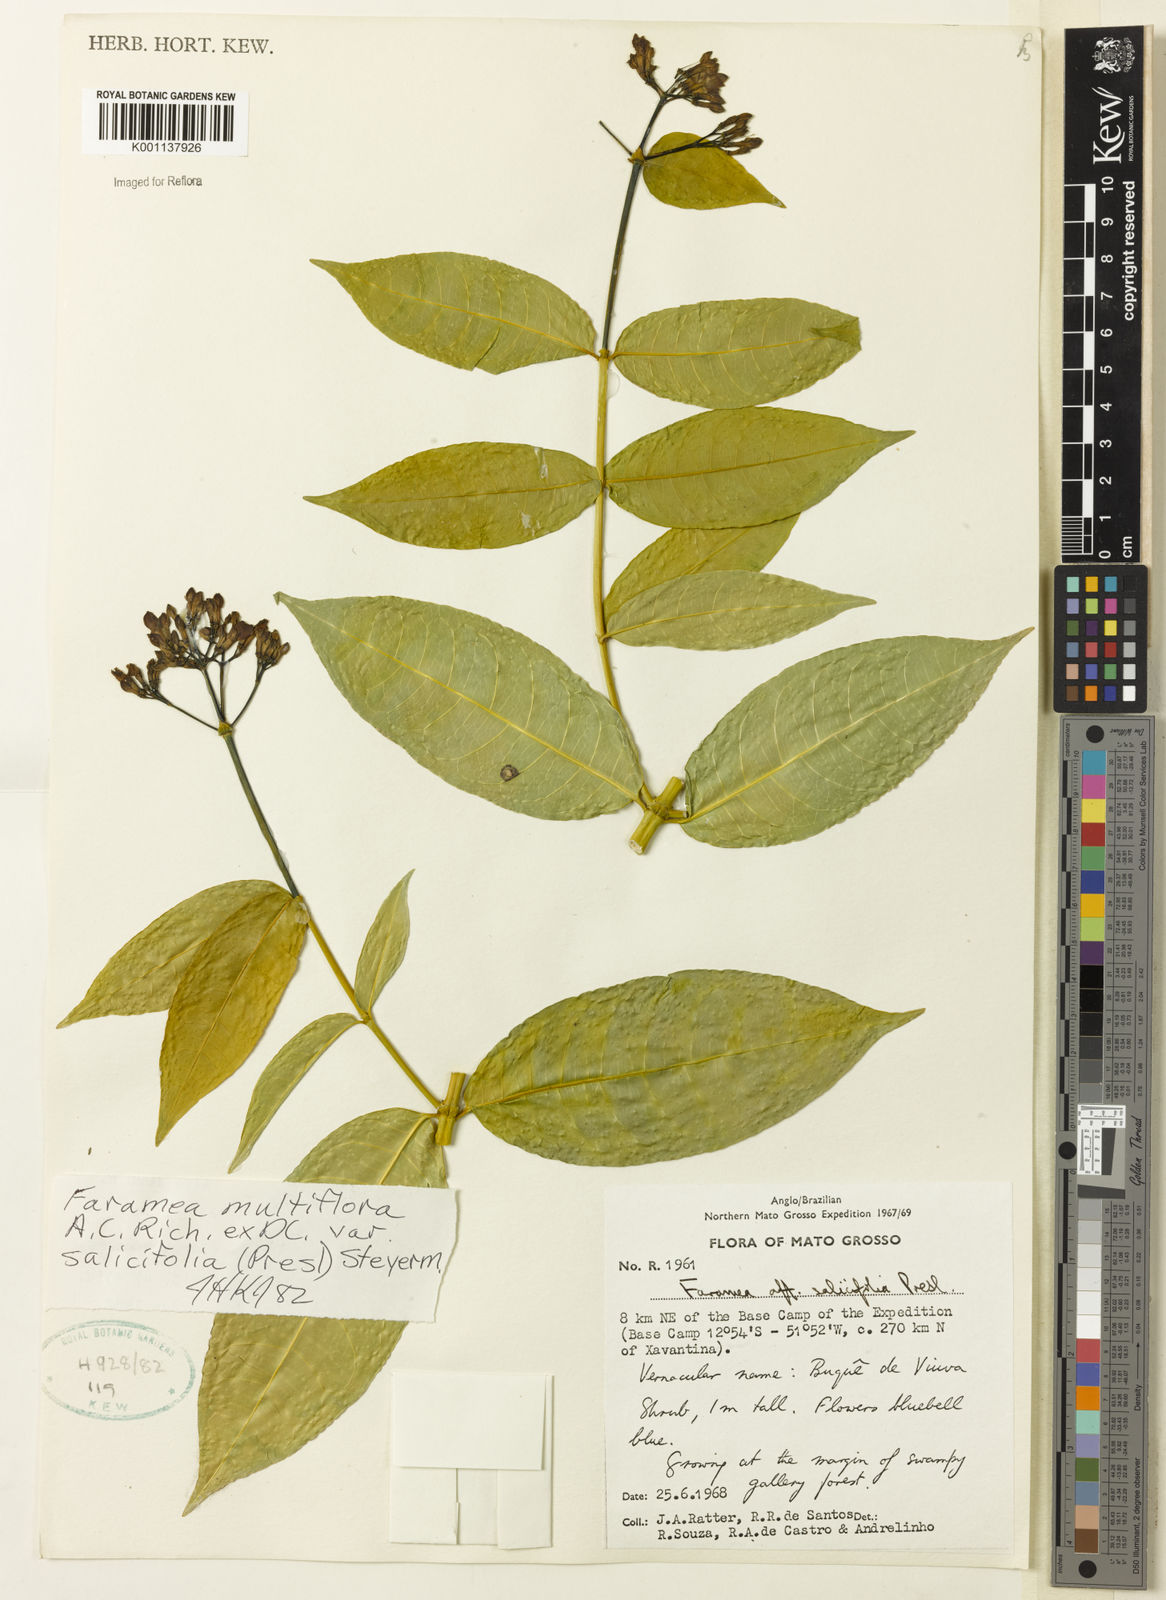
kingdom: Plantae
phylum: Tracheophyta
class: Magnoliopsida
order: Gentianales
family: Rubiaceae
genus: Faramea
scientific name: Faramea multiflora
